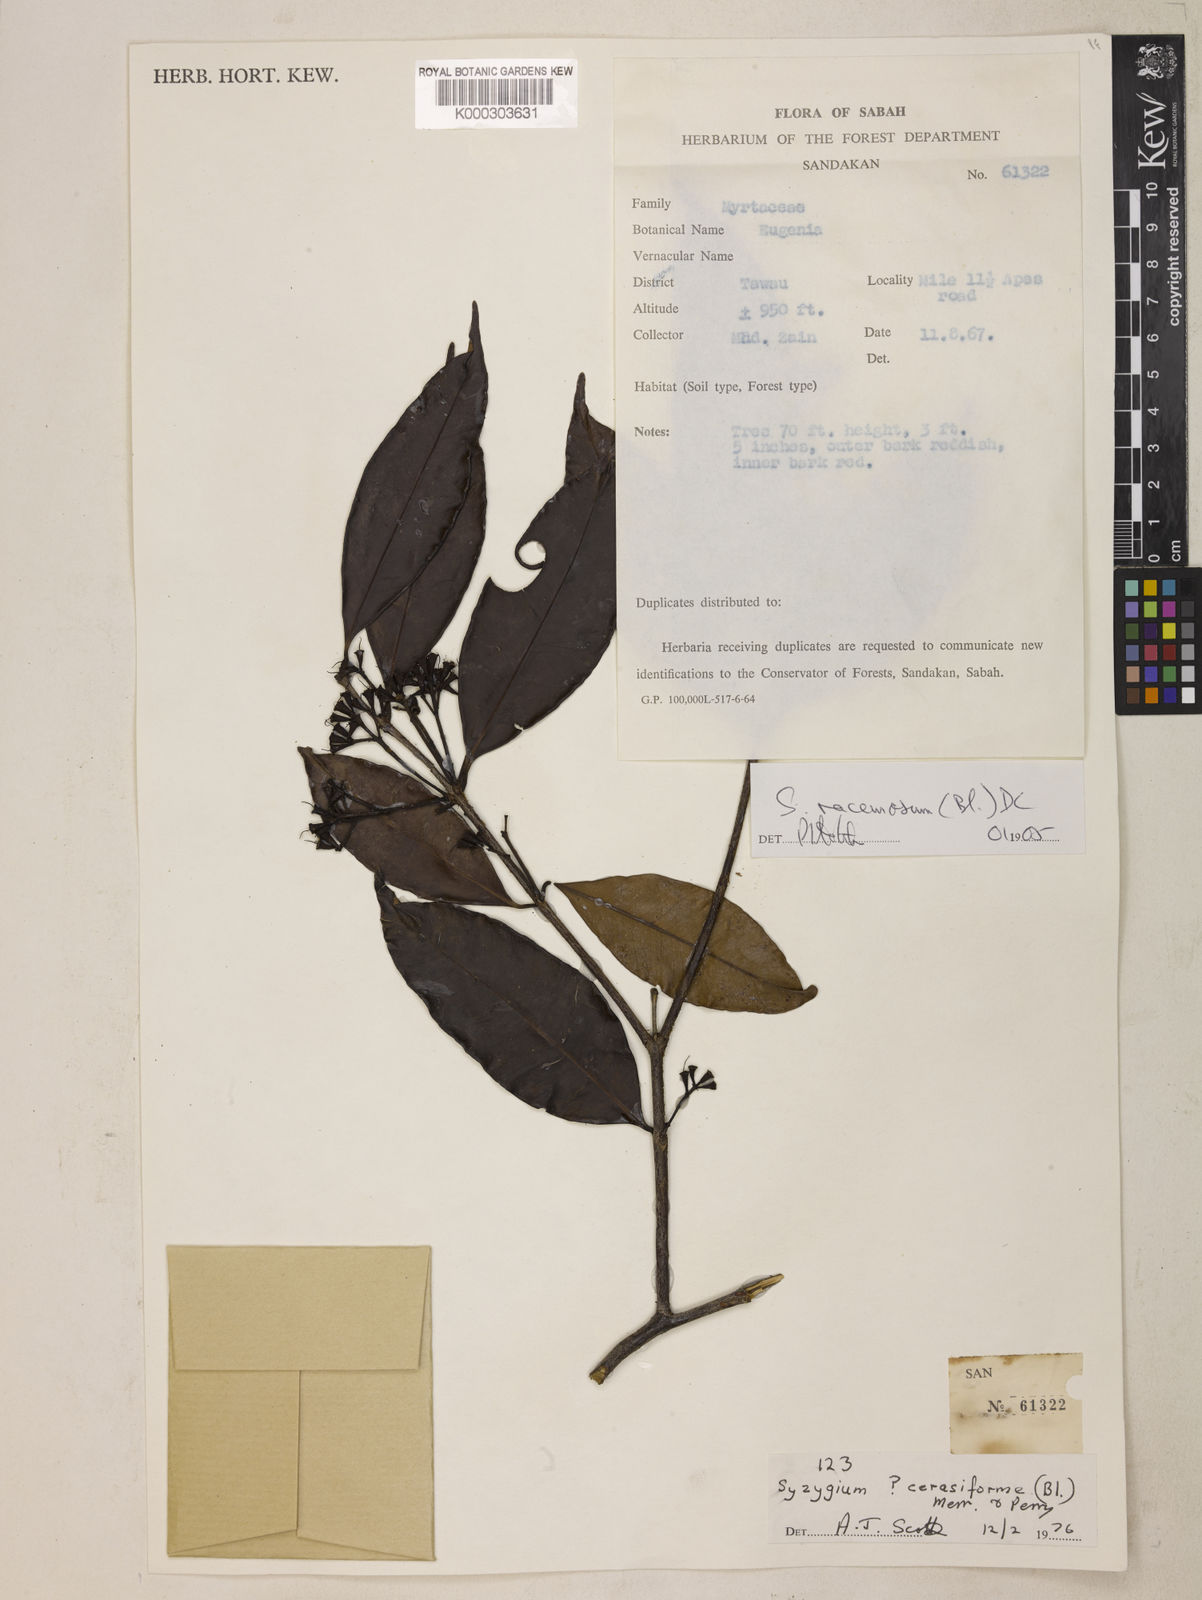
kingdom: Plantae
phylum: Tracheophyta
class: Magnoliopsida
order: Myrtales
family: Myrtaceae
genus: Syzygium
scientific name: Syzygium racemosum
